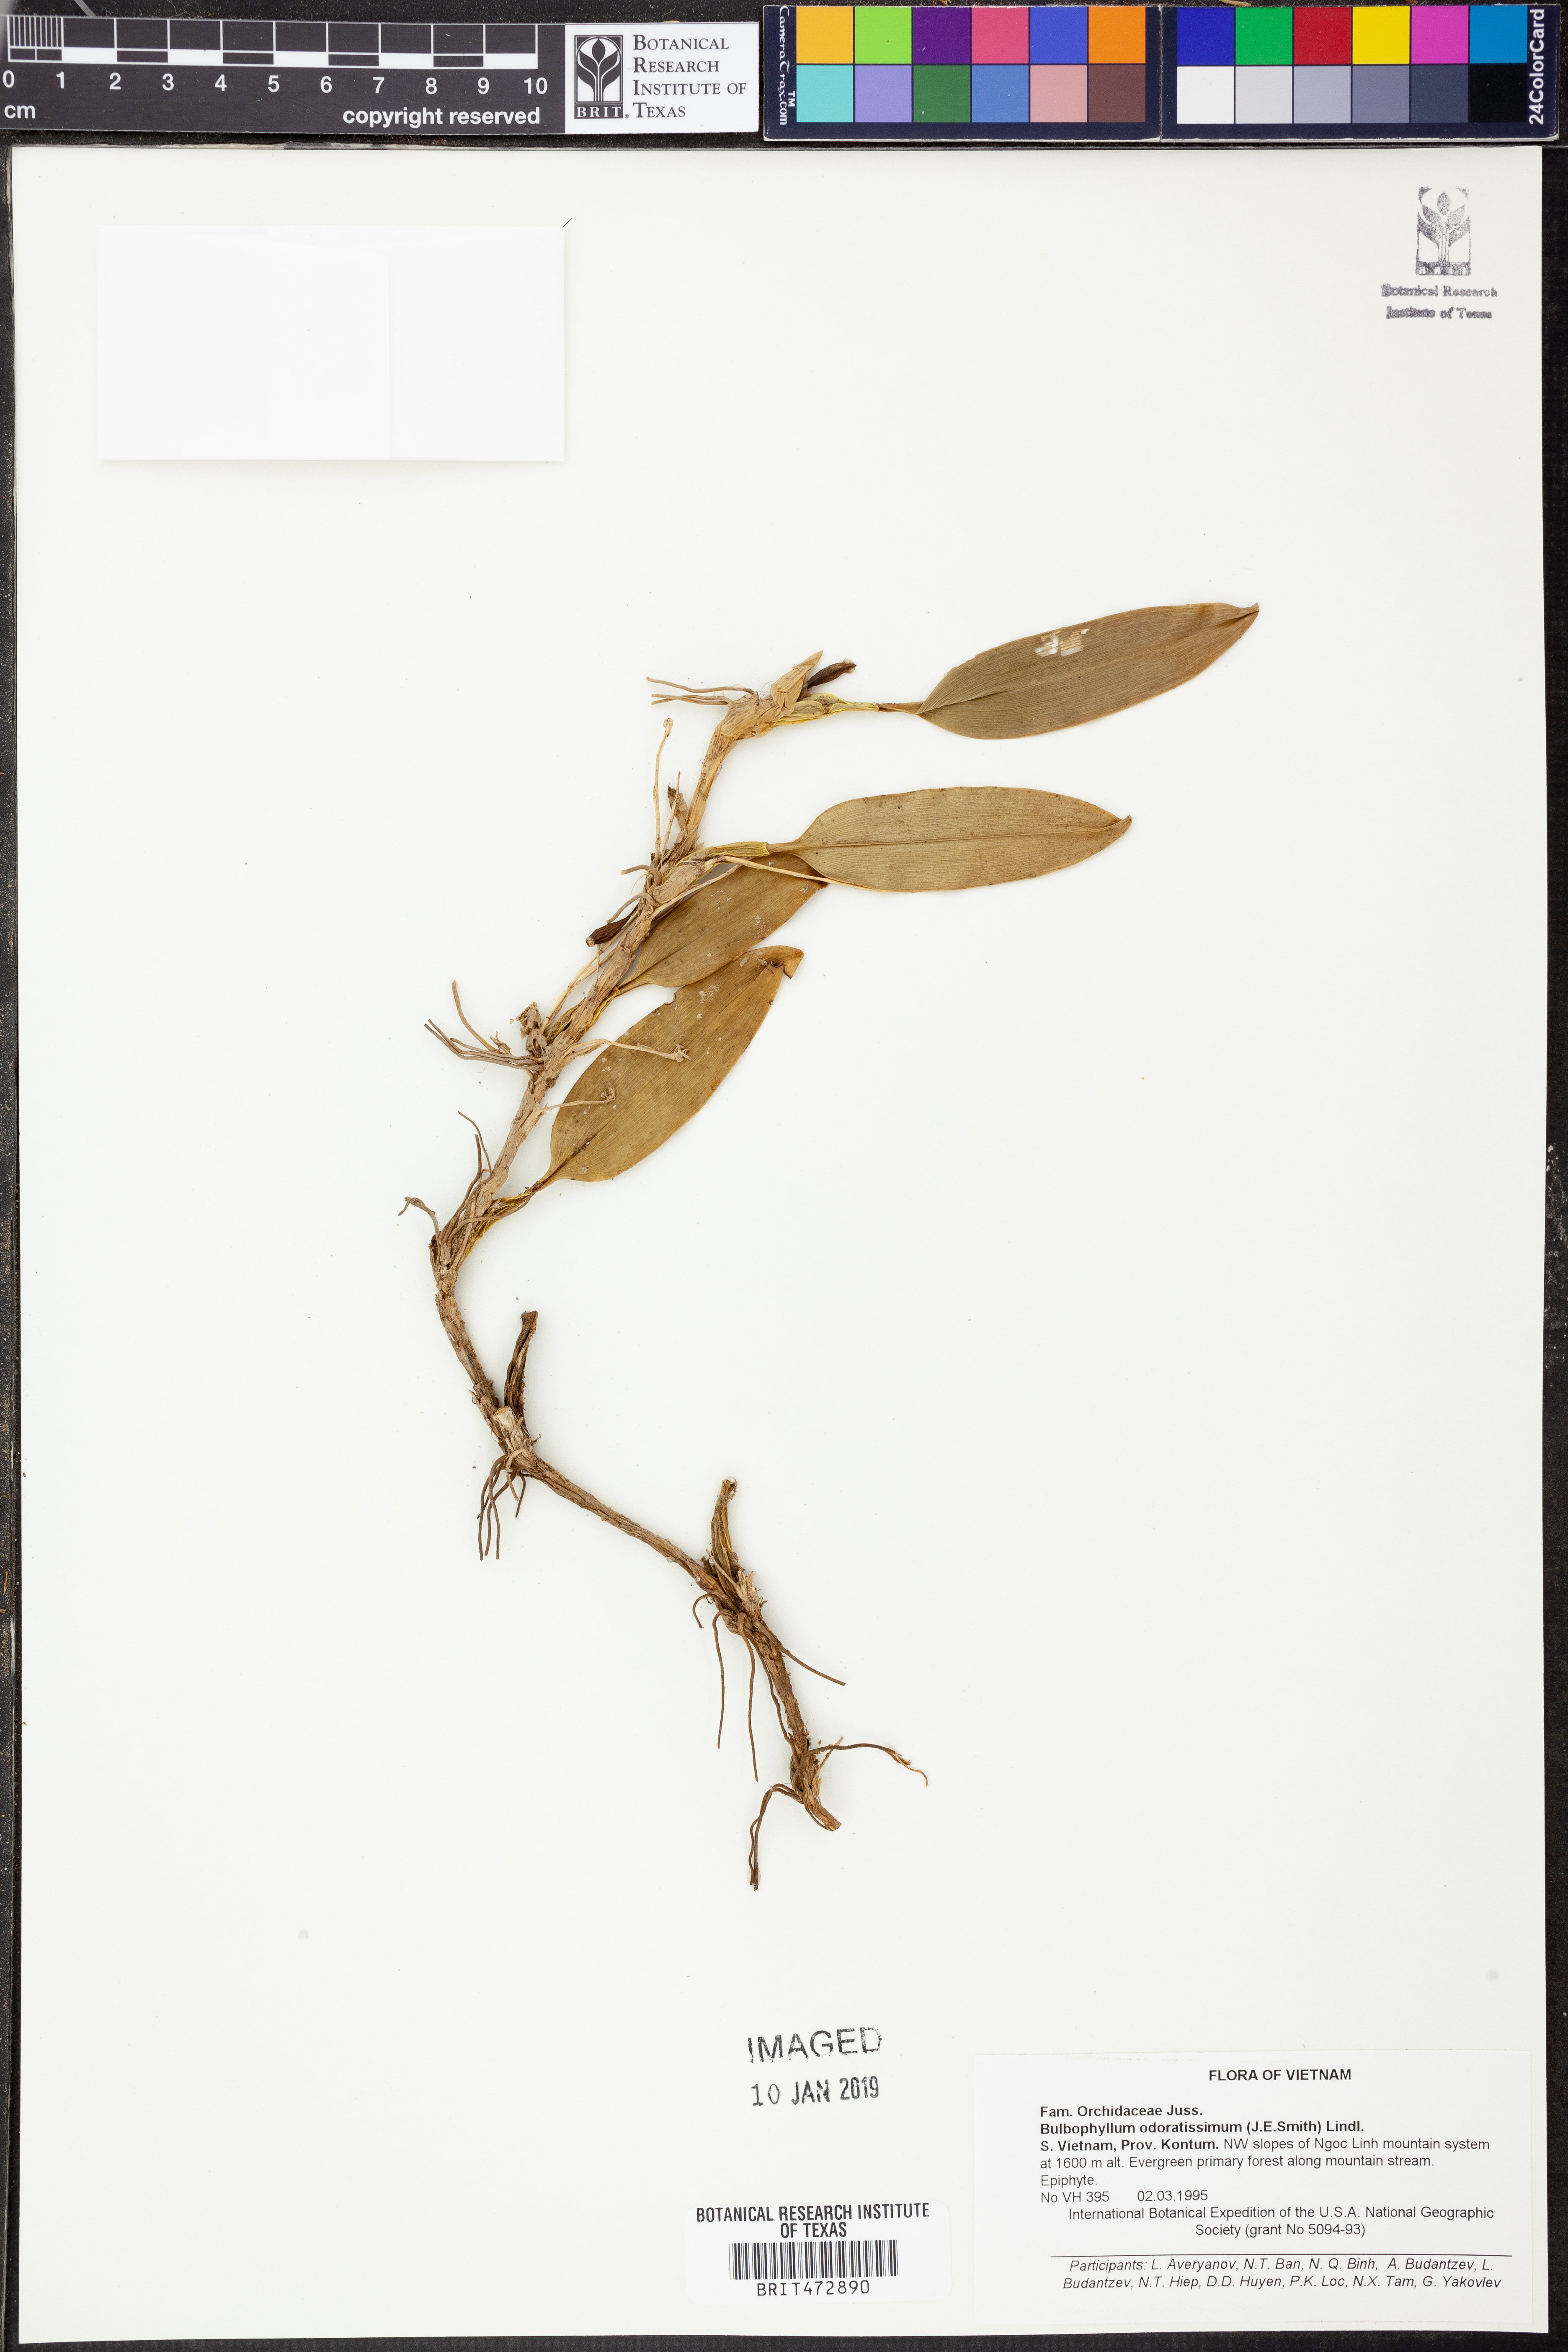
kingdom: Plantae
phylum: Tracheophyta
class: Liliopsida
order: Asparagales
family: Orchidaceae
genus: Bulbophyllum
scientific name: Bulbophyllum odoratissimum
